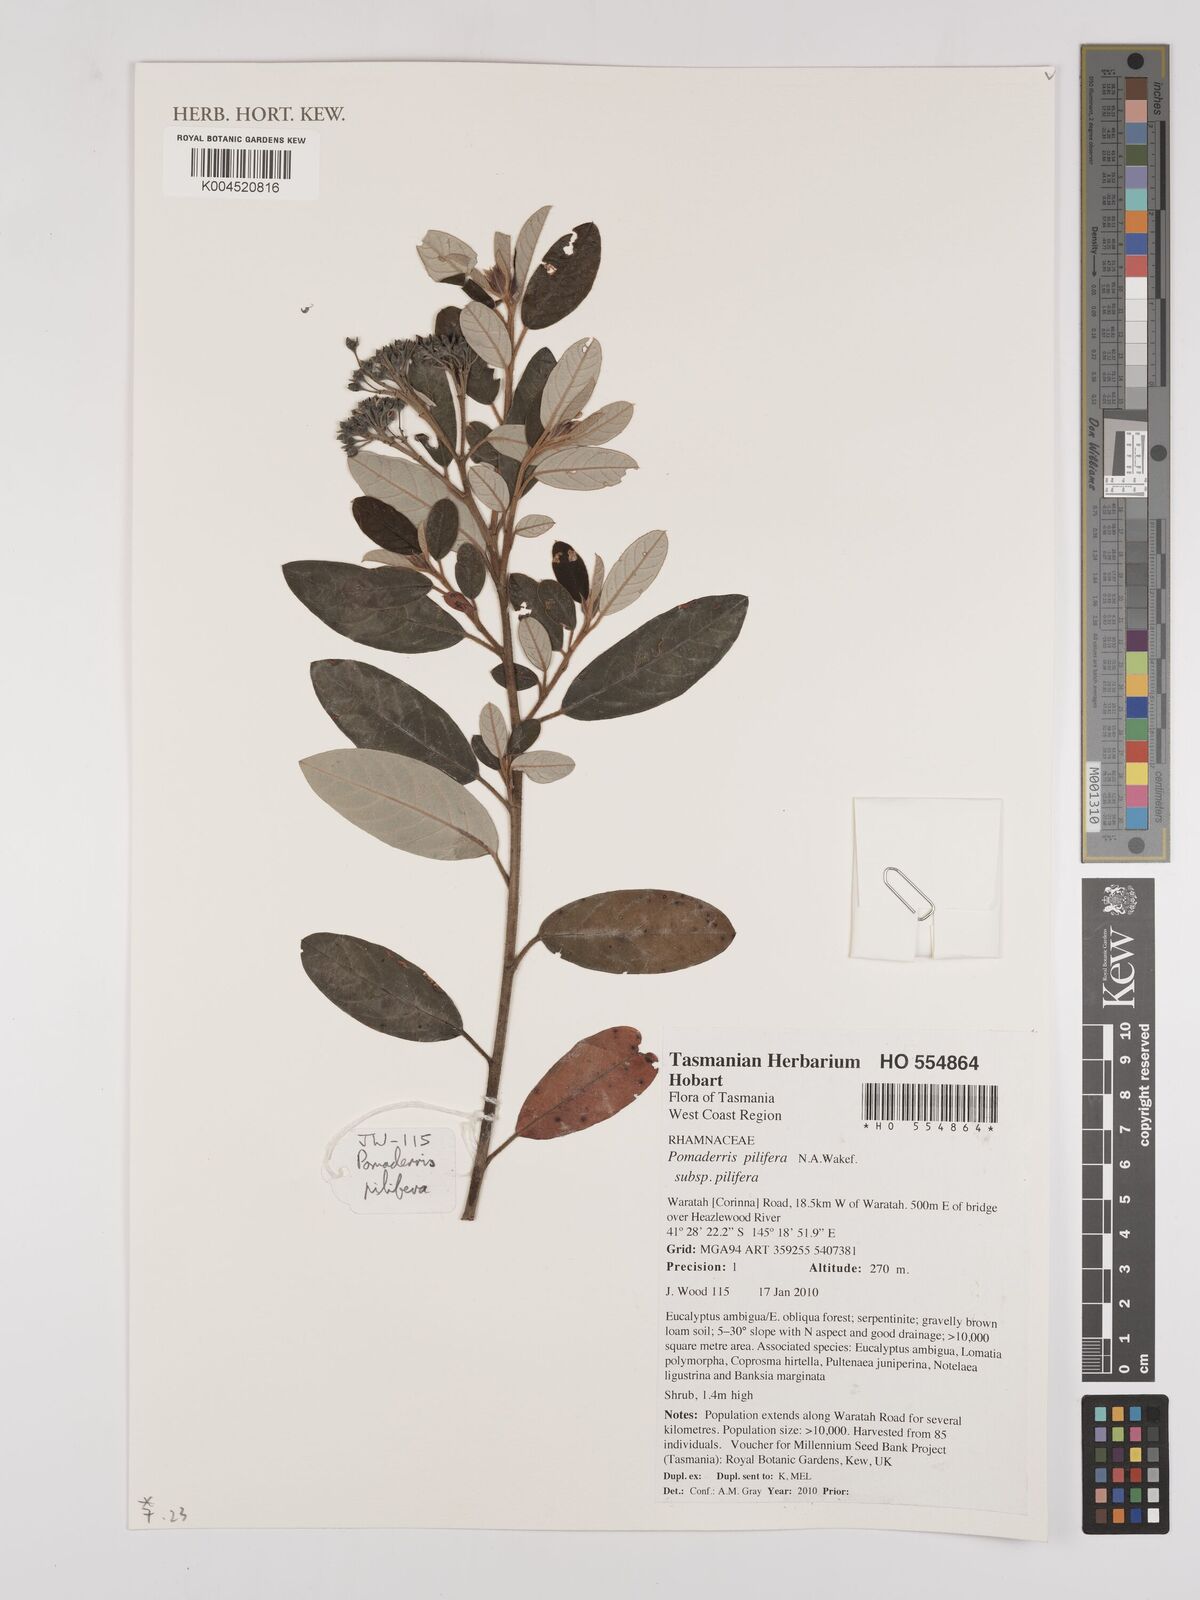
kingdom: Plantae
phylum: Tracheophyta
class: Magnoliopsida
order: Rosales
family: Rhamnaceae
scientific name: Rhamnaceae
